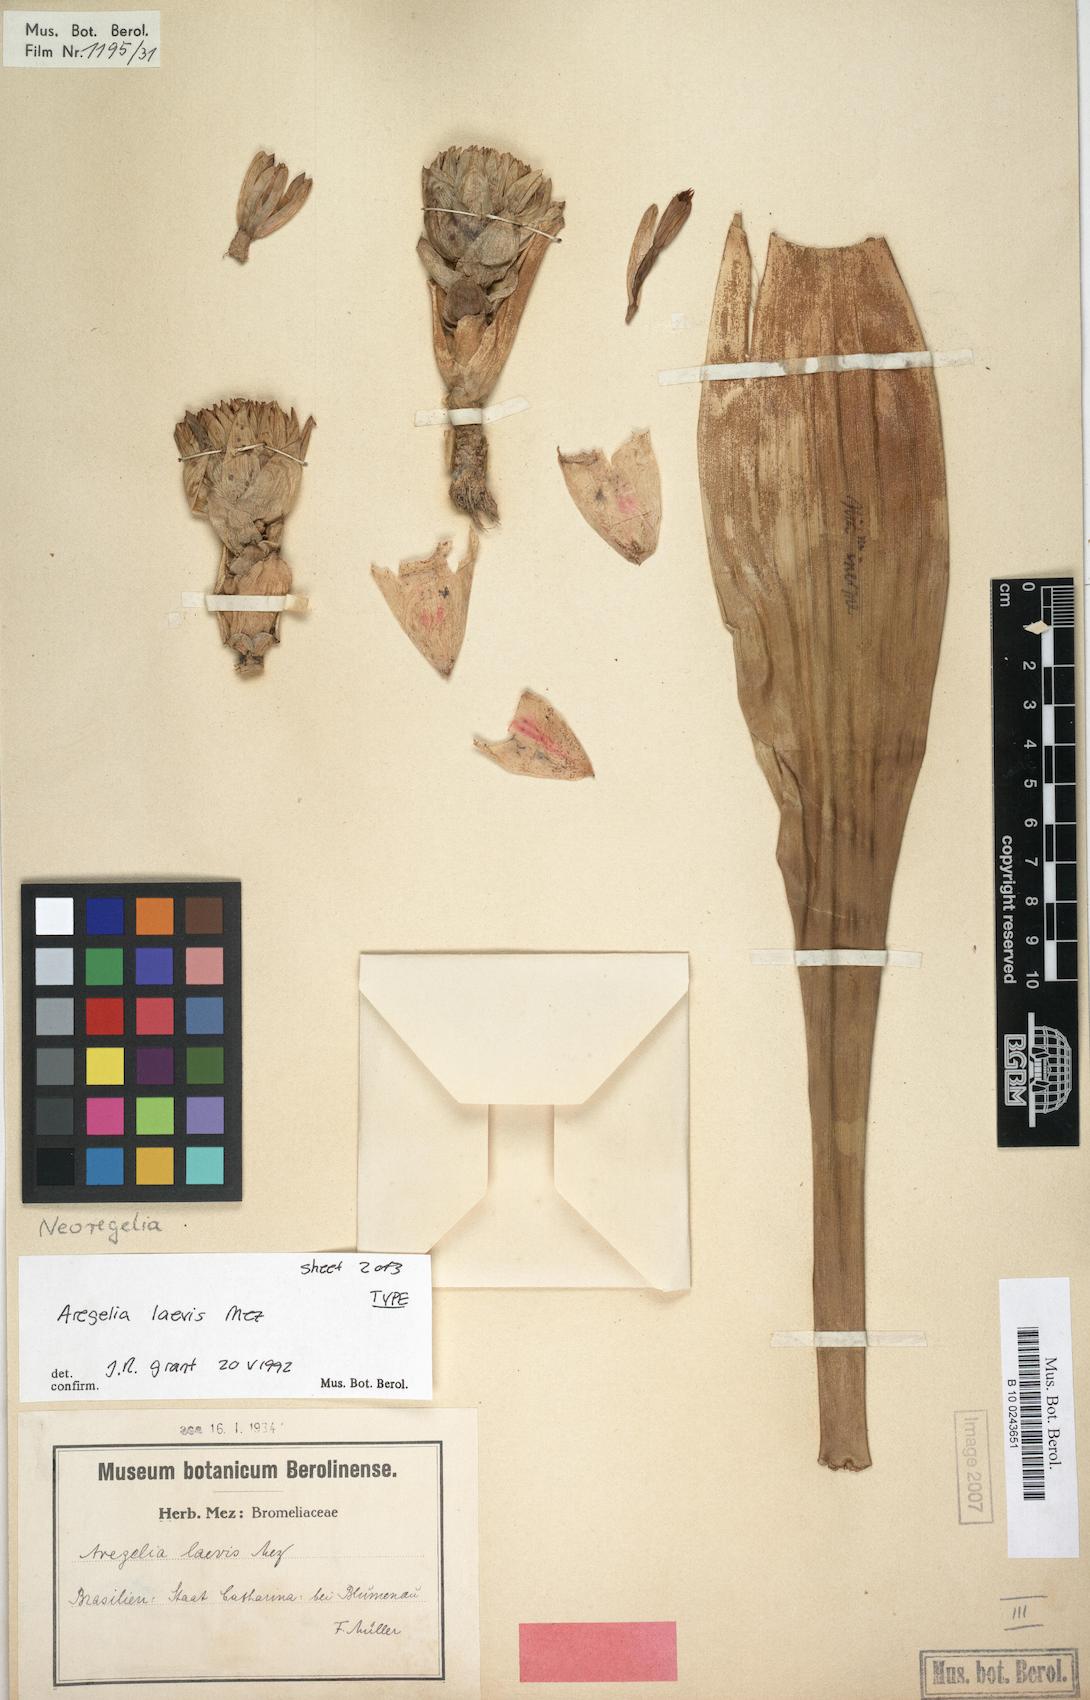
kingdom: Plantae
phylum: Tracheophyta
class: Liliopsida
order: Poales
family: Bromeliaceae
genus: Neoregelia
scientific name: Neoregelia laevis
